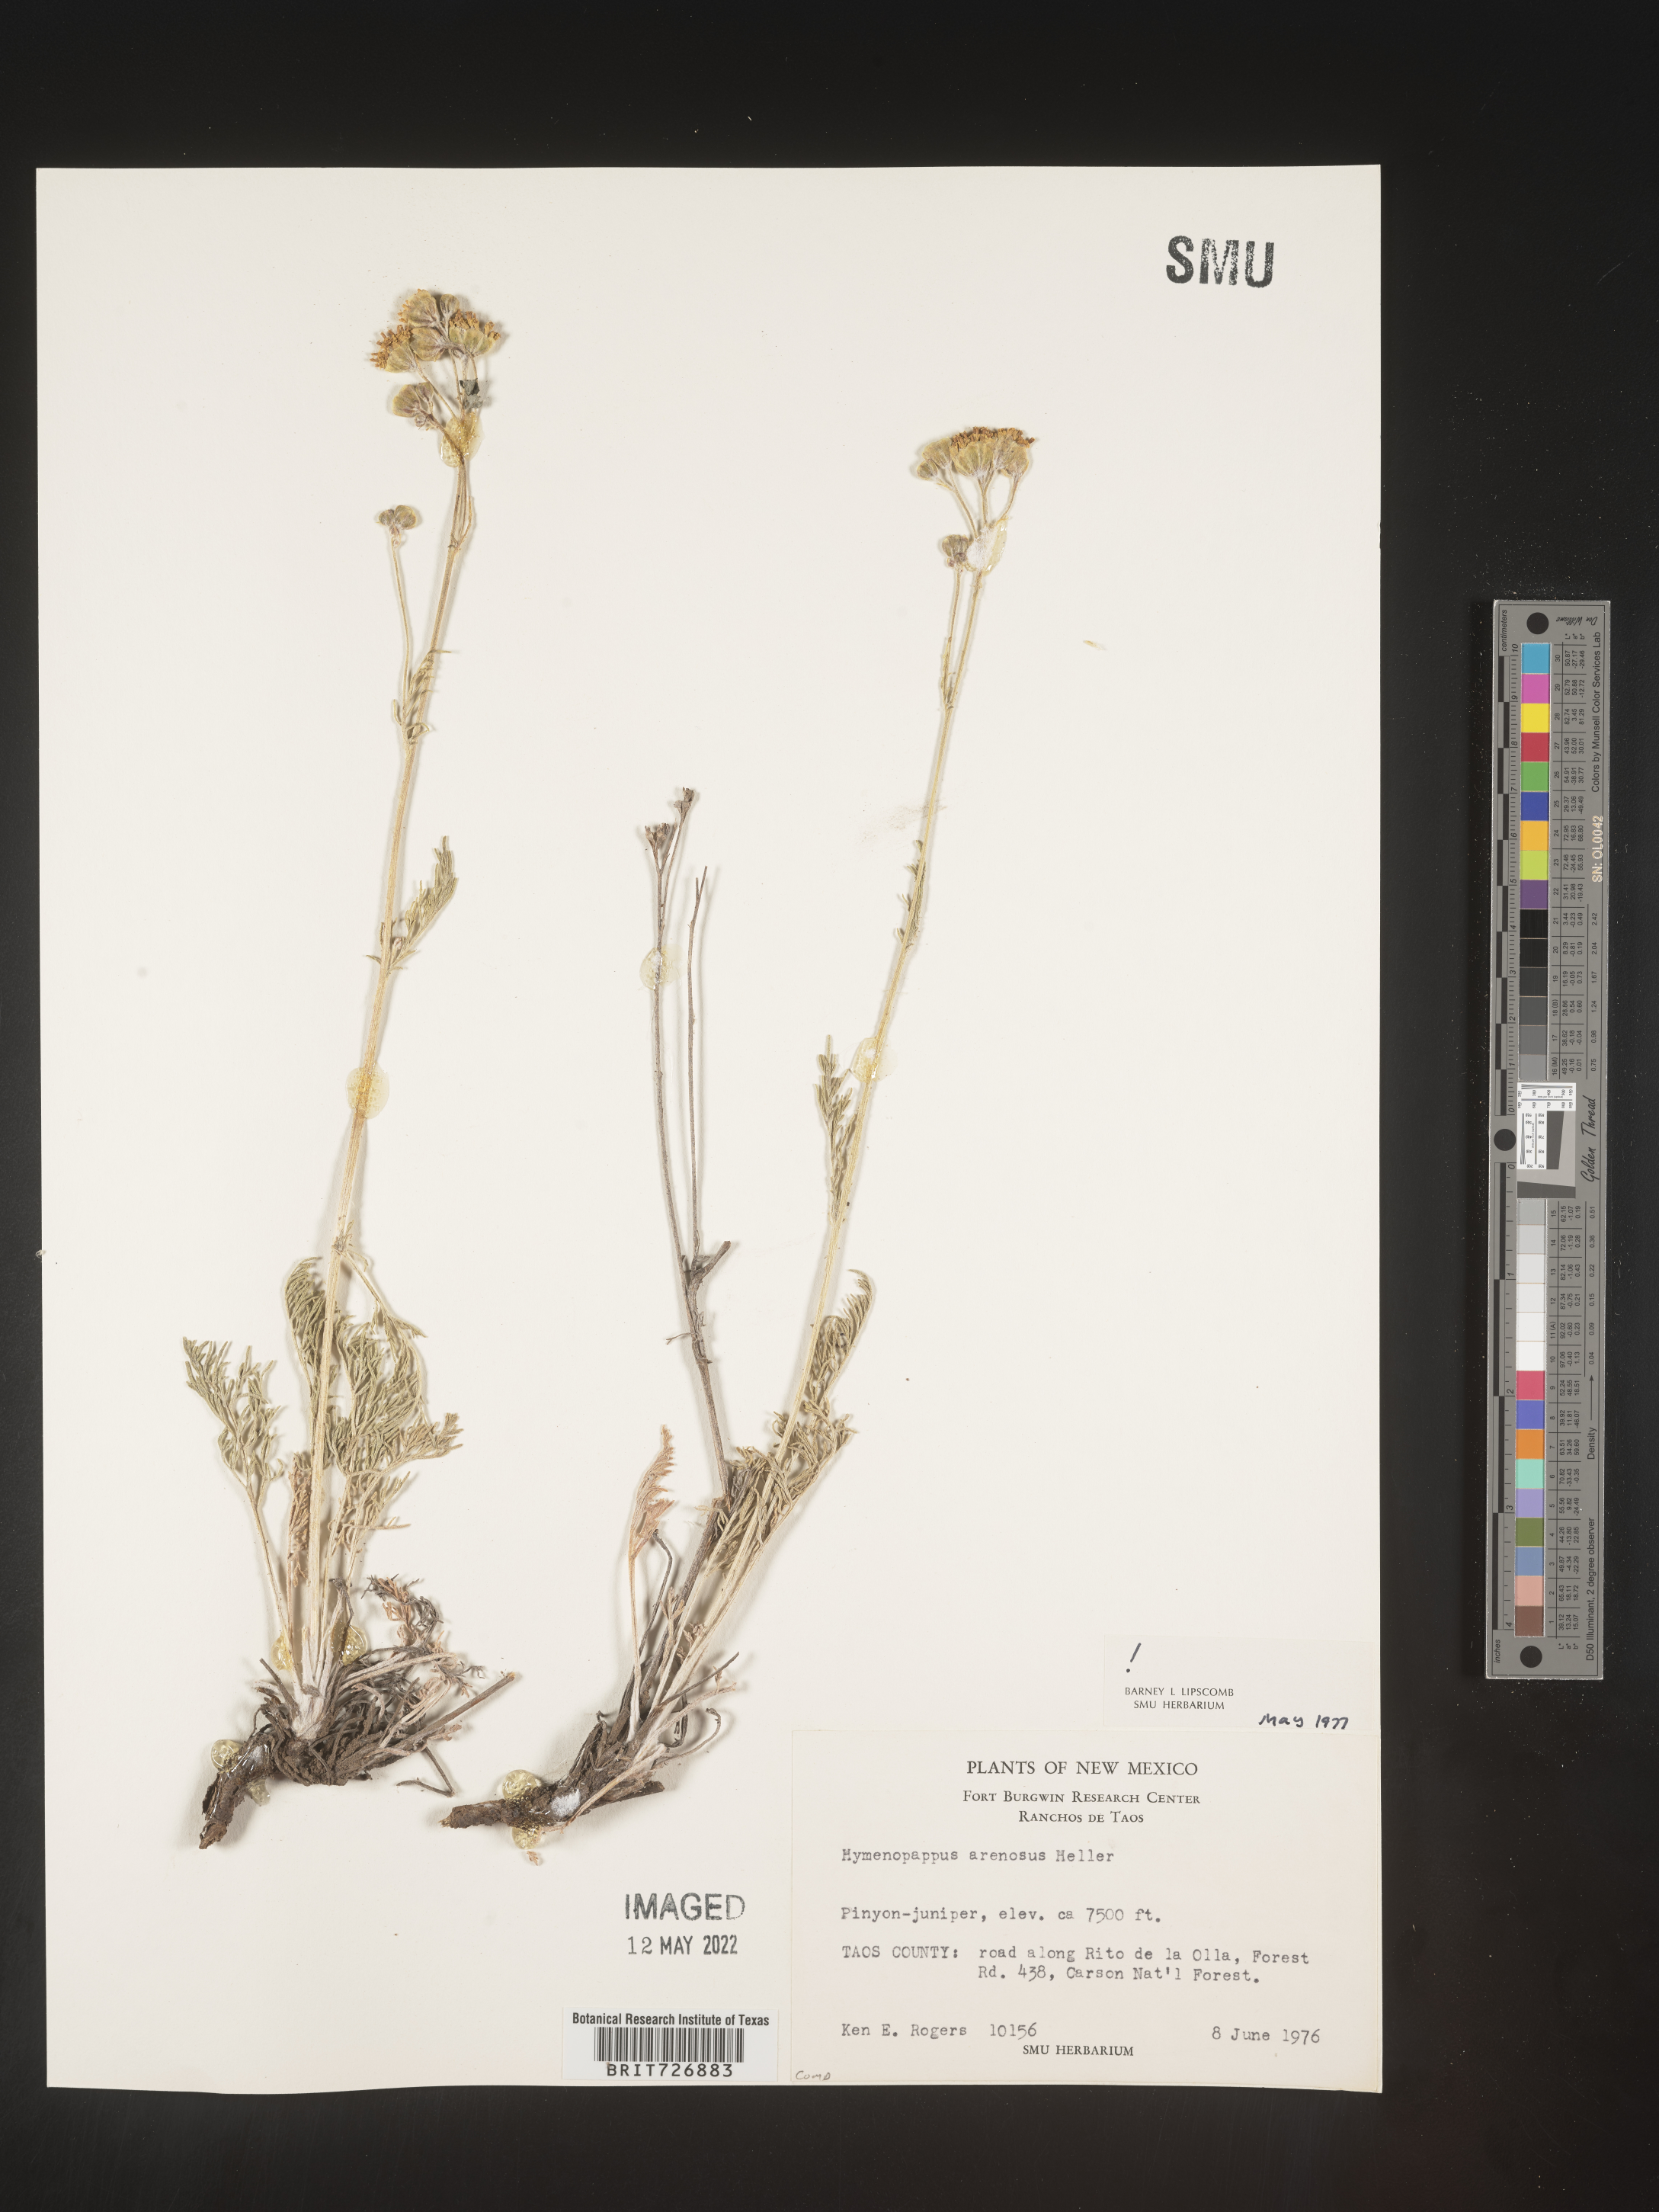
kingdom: Plantae
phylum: Tracheophyta
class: Magnoliopsida
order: Asterales
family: Asteraceae
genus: Hymenopappus
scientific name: Hymenopappus filifolius
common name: Columbia cutleaf
